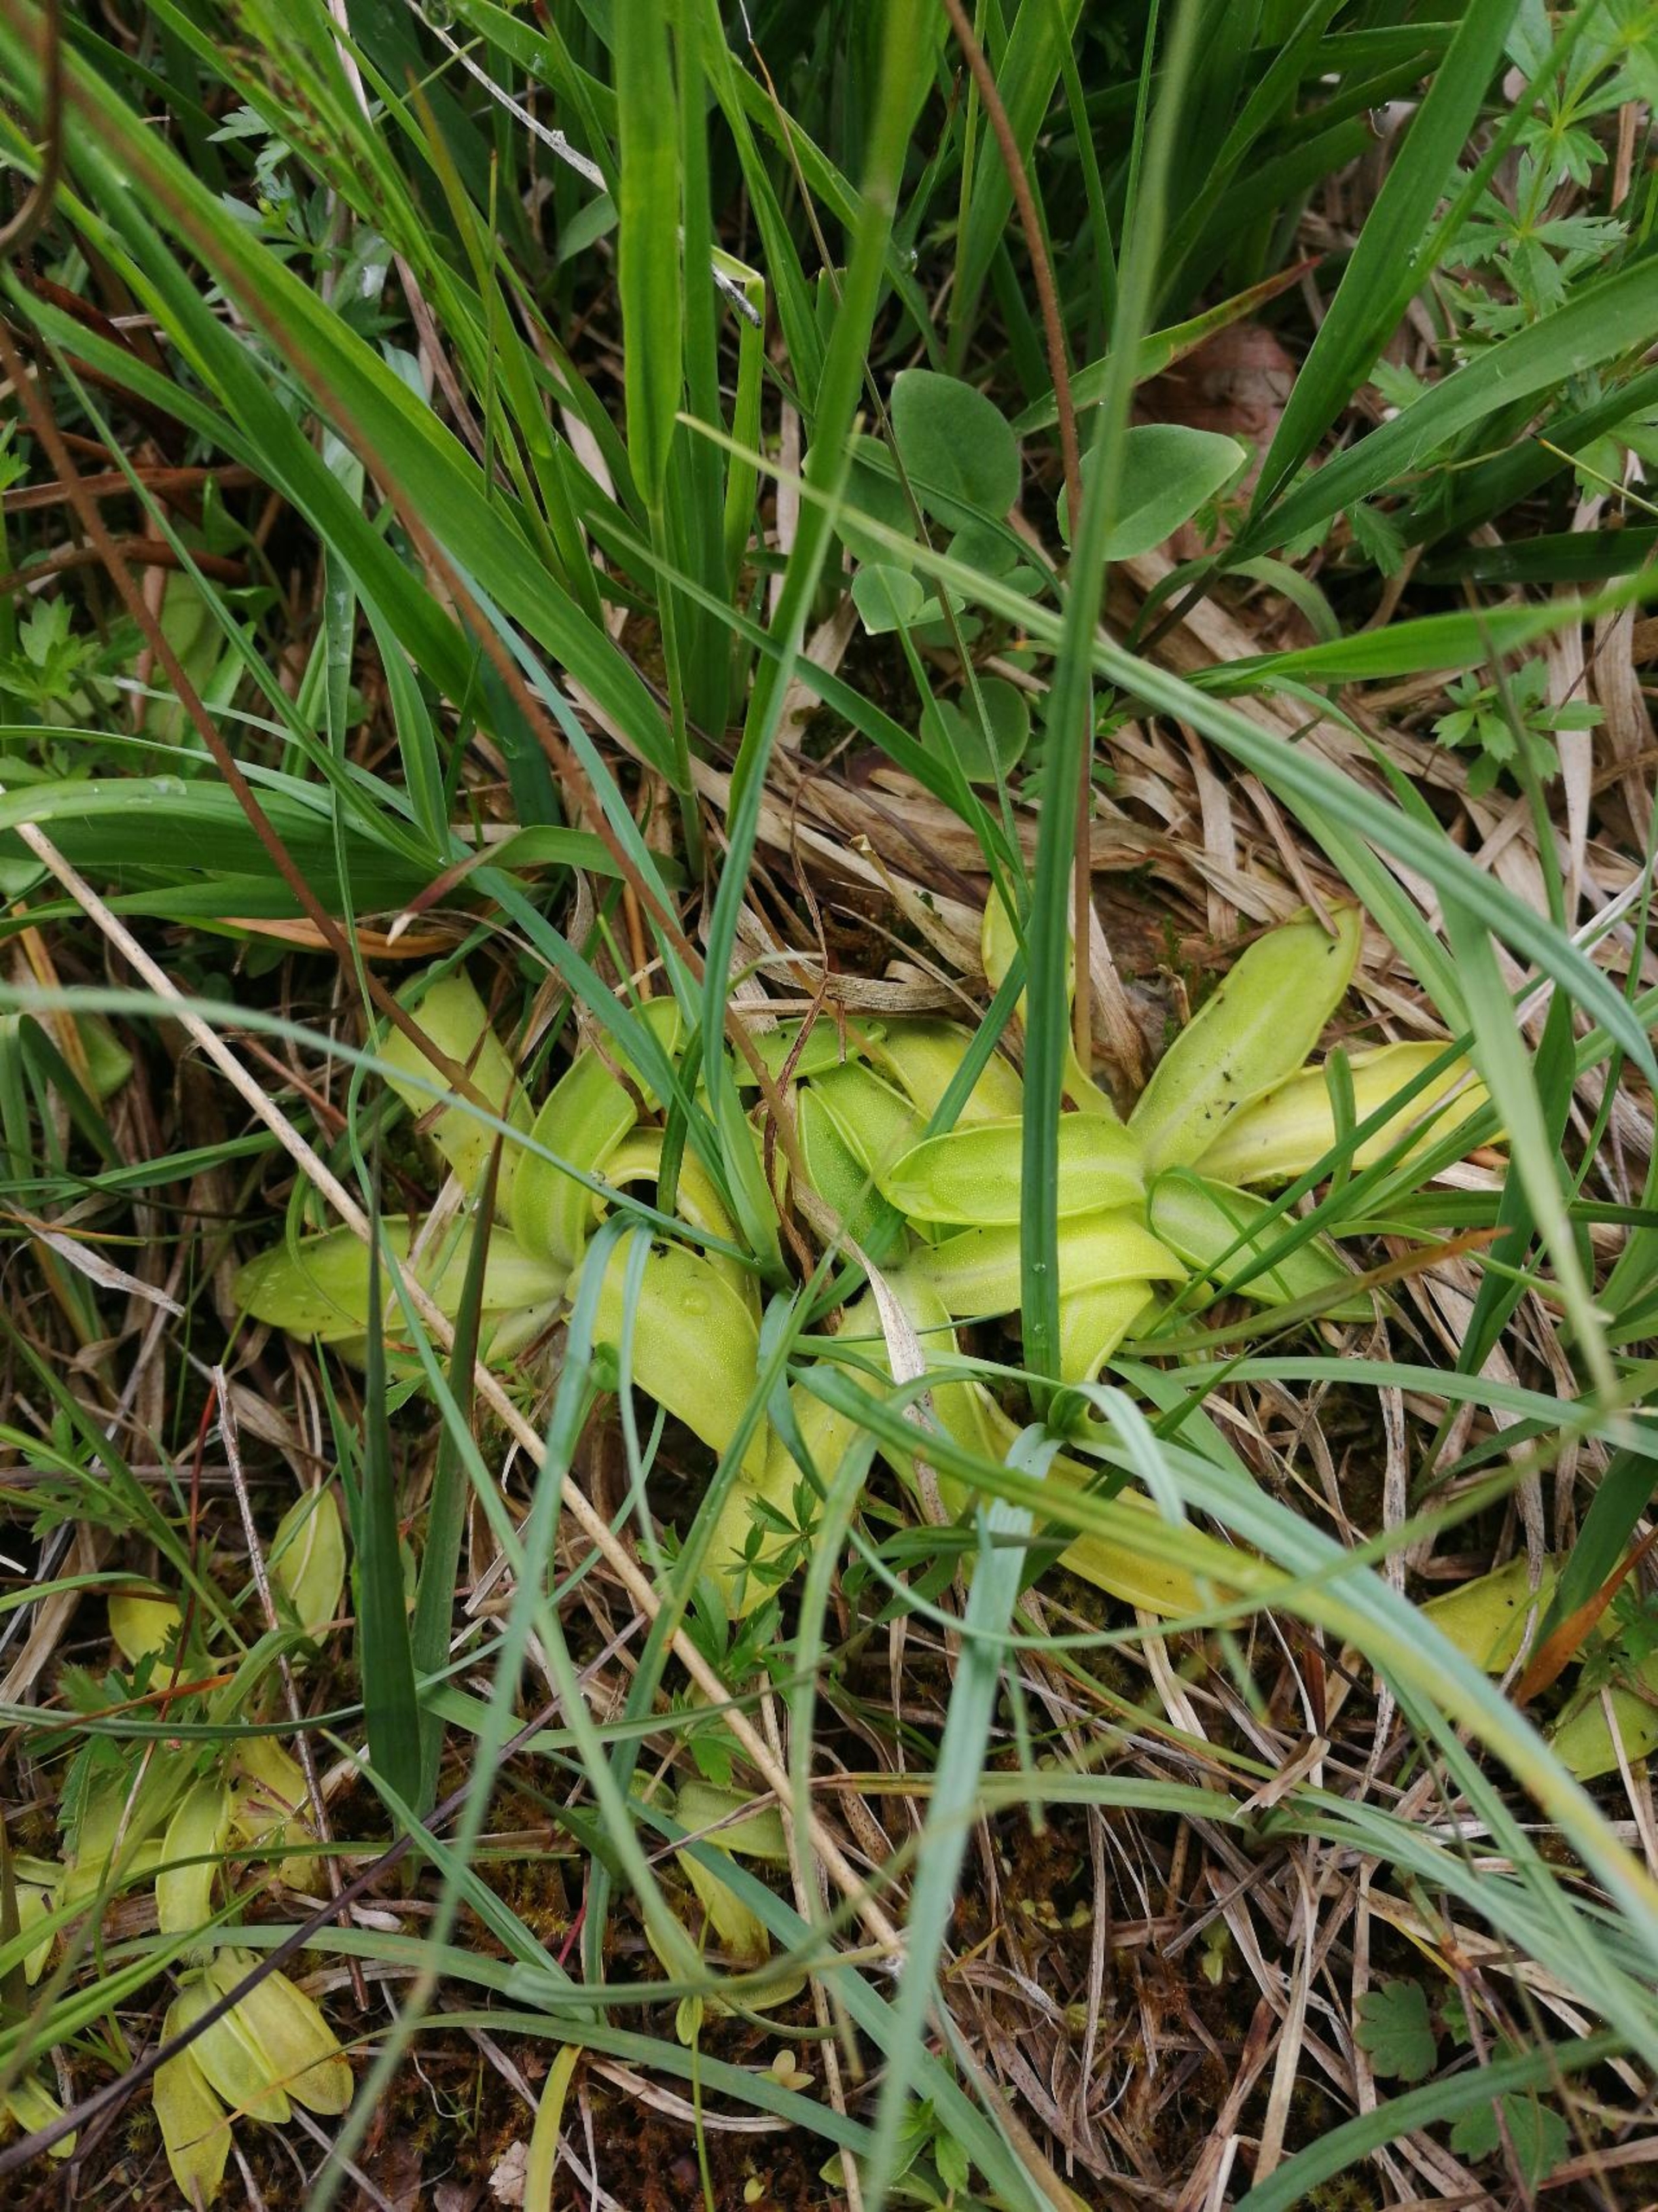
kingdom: Plantae
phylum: Tracheophyta
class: Magnoliopsida
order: Lamiales
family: Lentibulariaceae
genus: Pinguicula
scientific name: Pinguicula vulgaris
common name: Vibefedt
